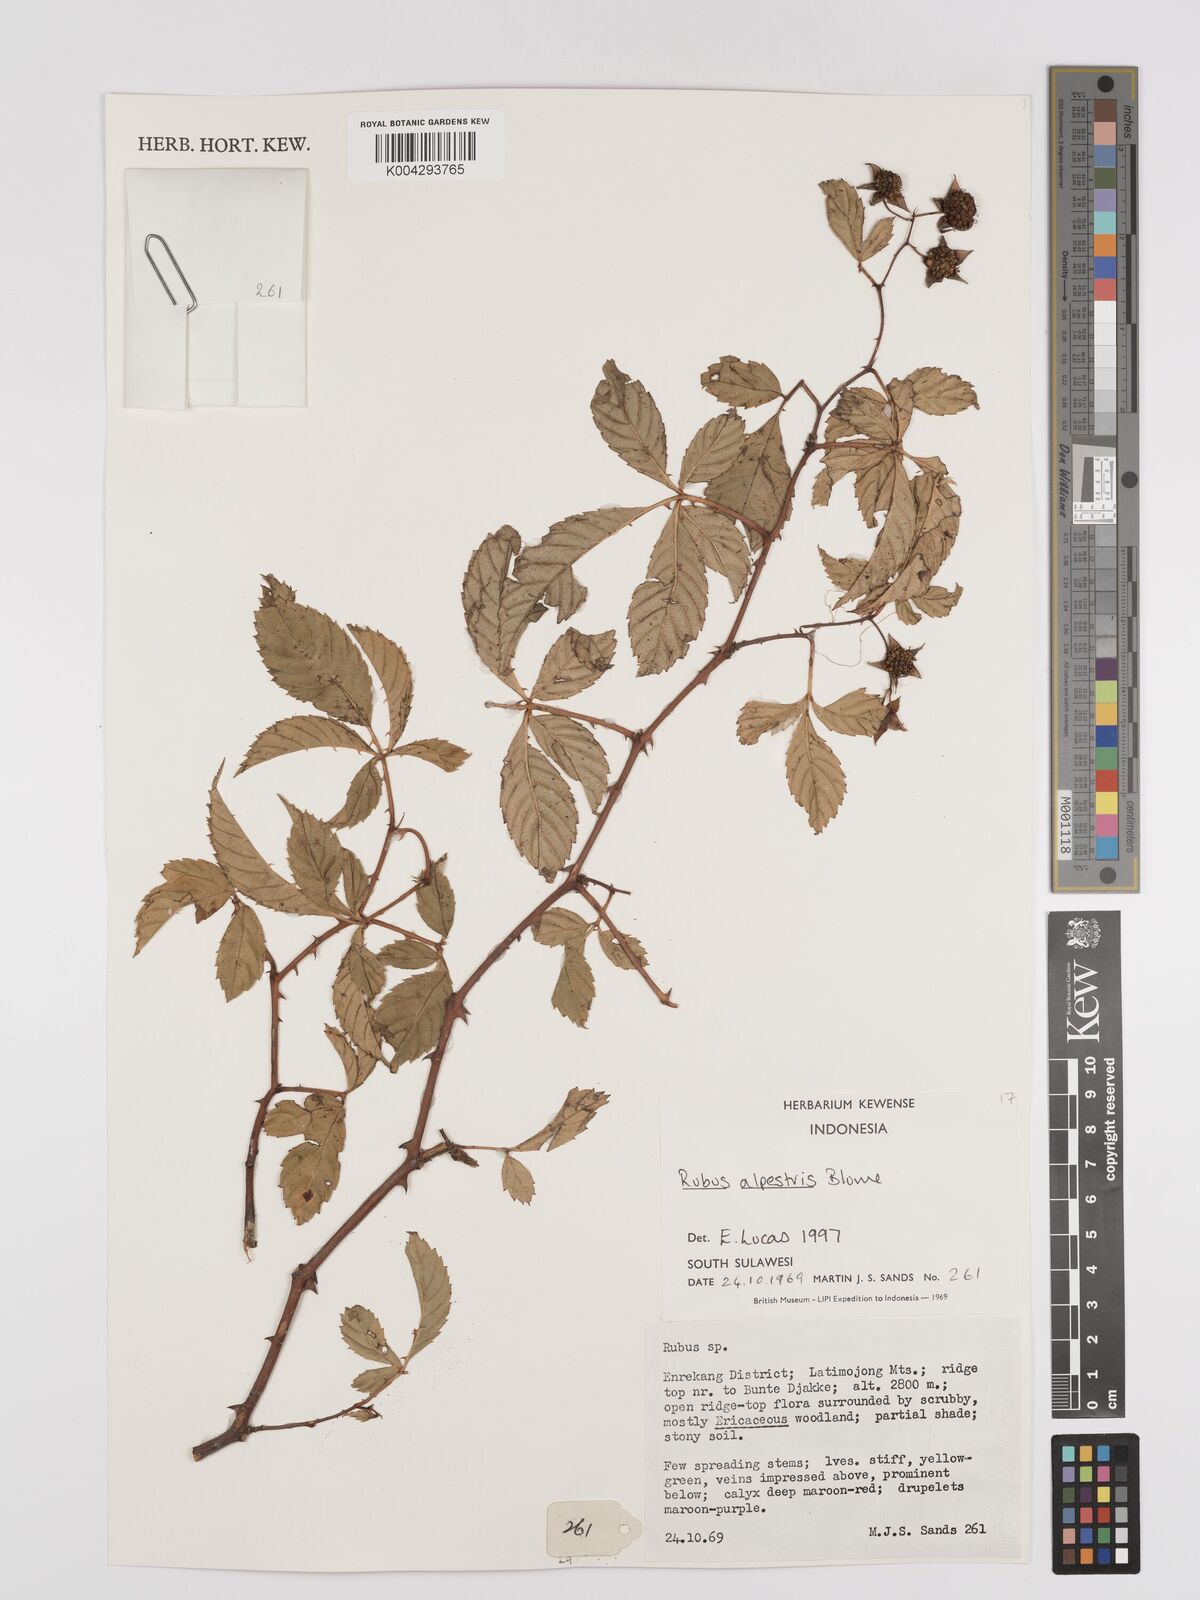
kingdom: Plantae
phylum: Tracheophyta
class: Magnoliopsida
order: Rosales
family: Rosaceae
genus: Rubus
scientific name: Rubus alpestris
